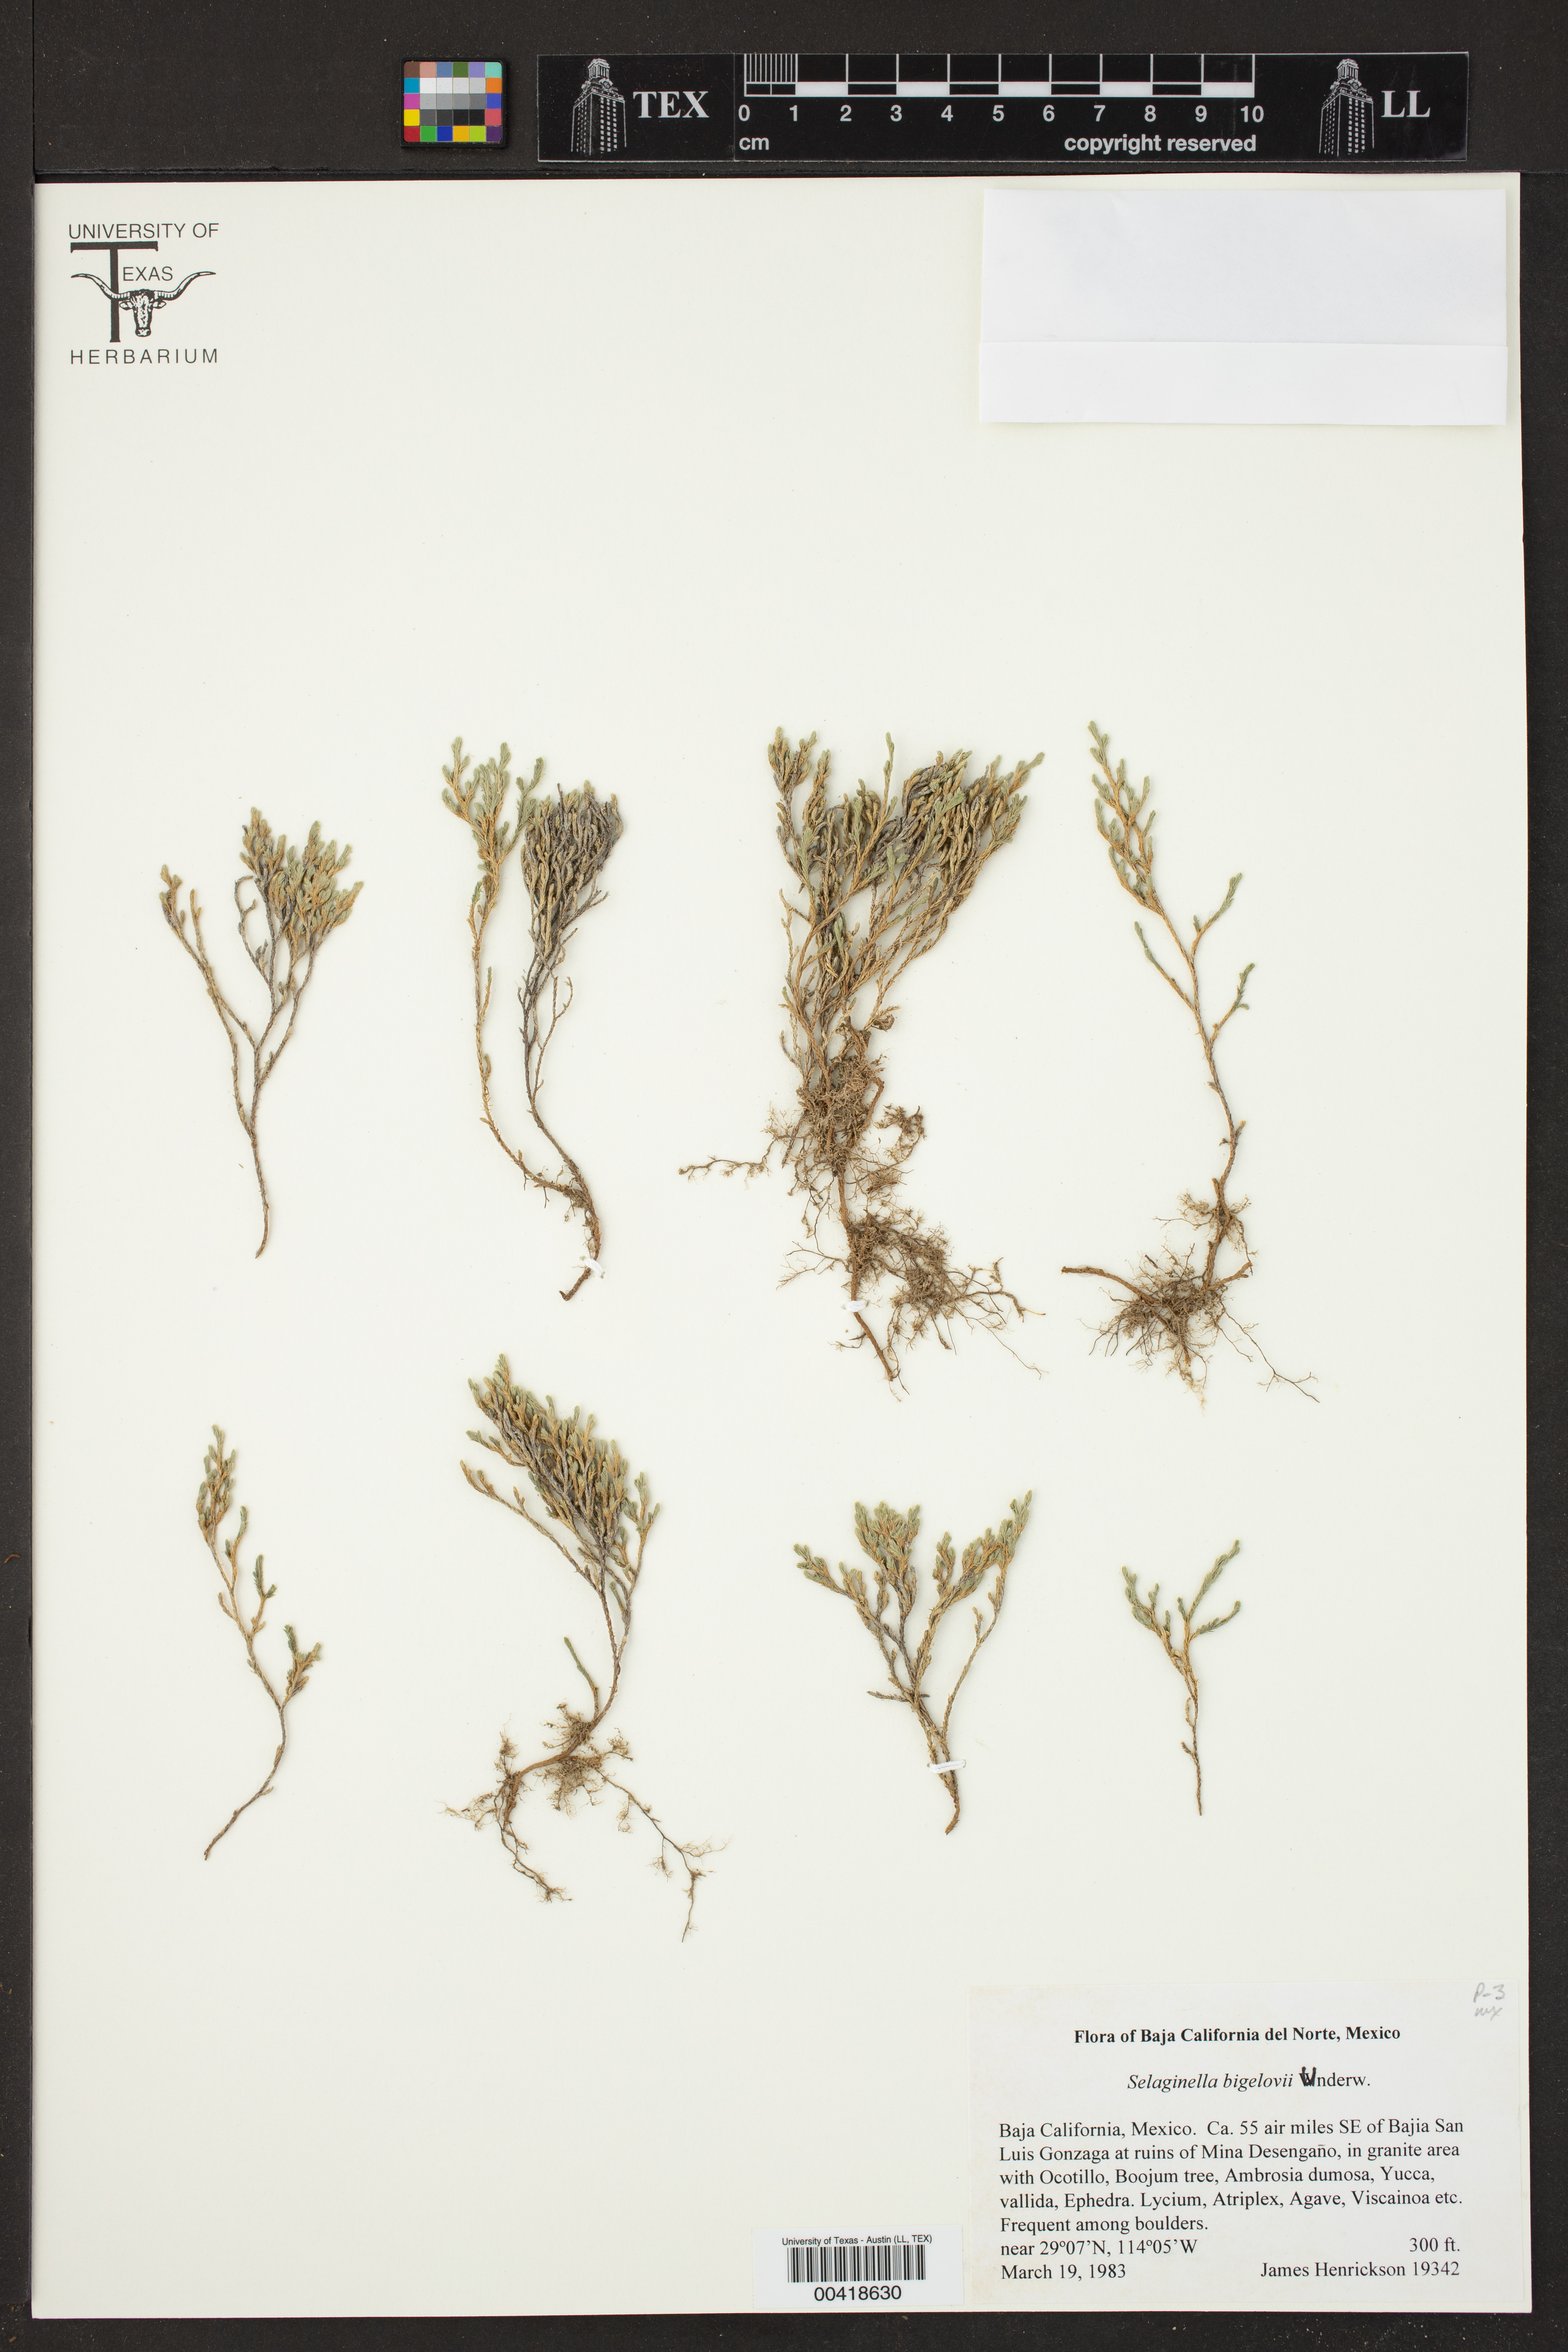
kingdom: Plantae
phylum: Tracheophyta
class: Lycopodiopsida
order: Selaginellales
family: Selaginellaceae
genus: Selaginella
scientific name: Selaginella bigelovii
